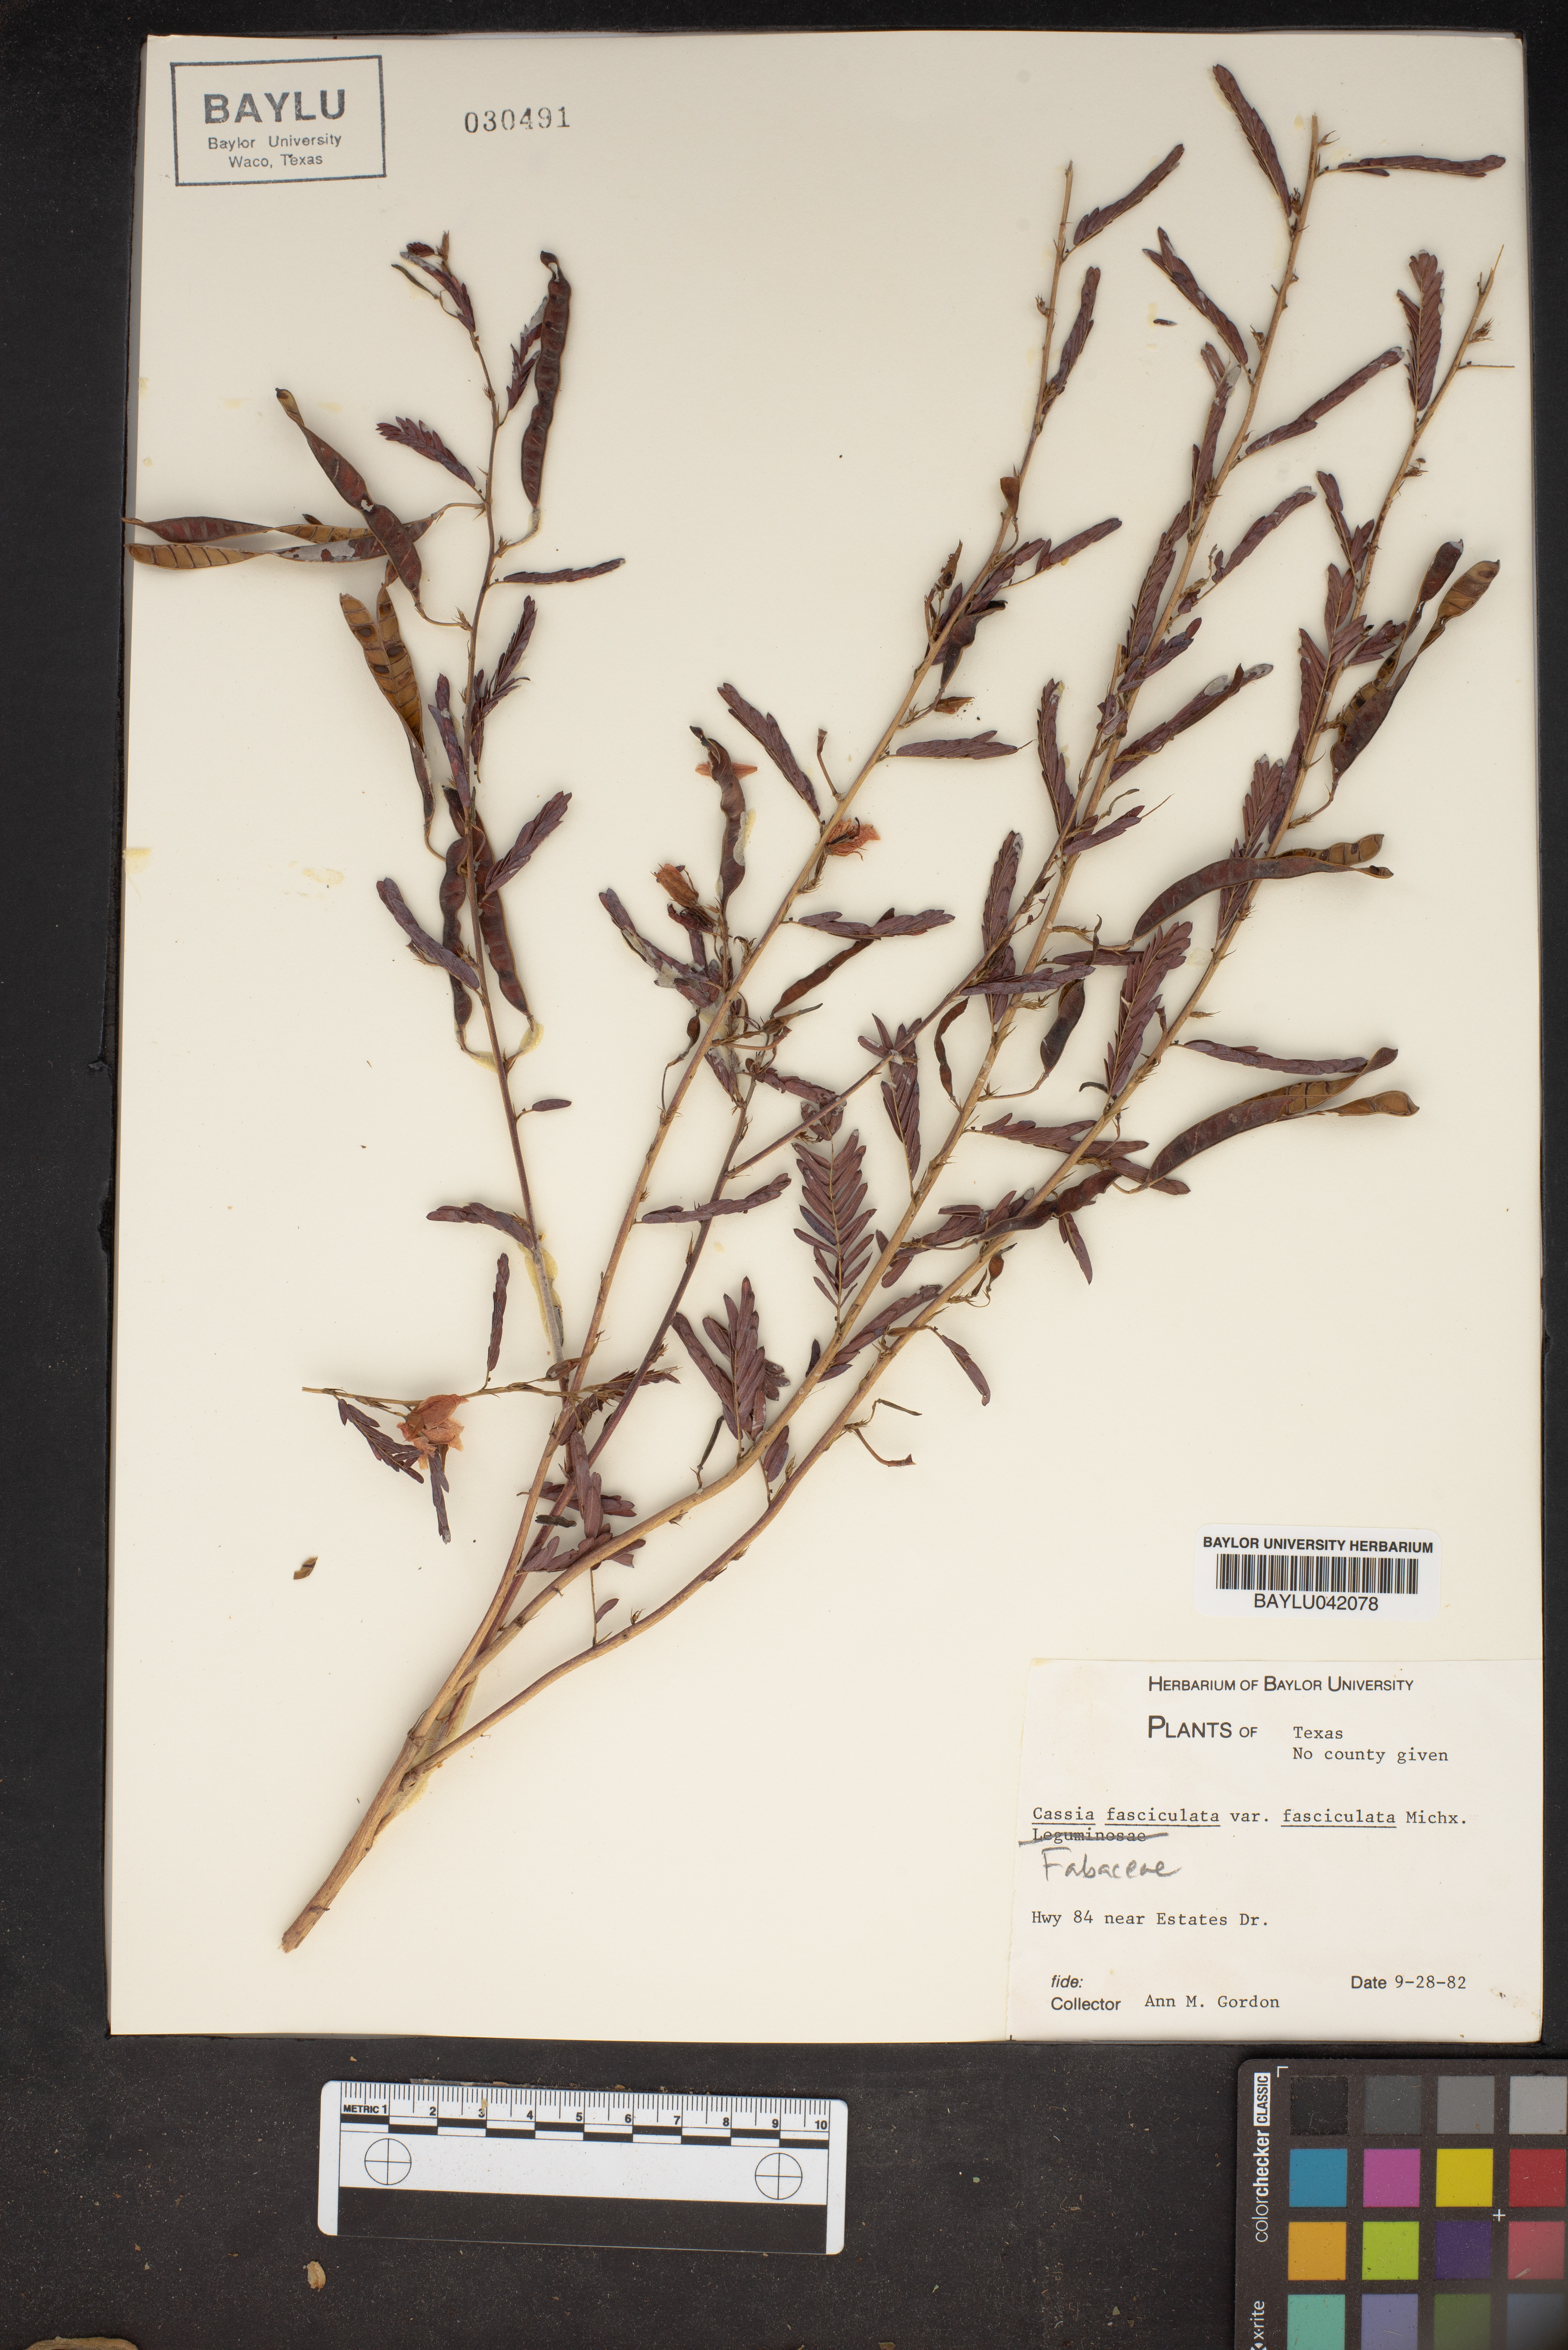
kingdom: Plantae
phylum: Tracheophyta
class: Magnoliopsida
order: Fabales
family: Fabaceae
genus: Chamaecrista
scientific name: Chamaecrista fasciculata
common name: Golden cassia
